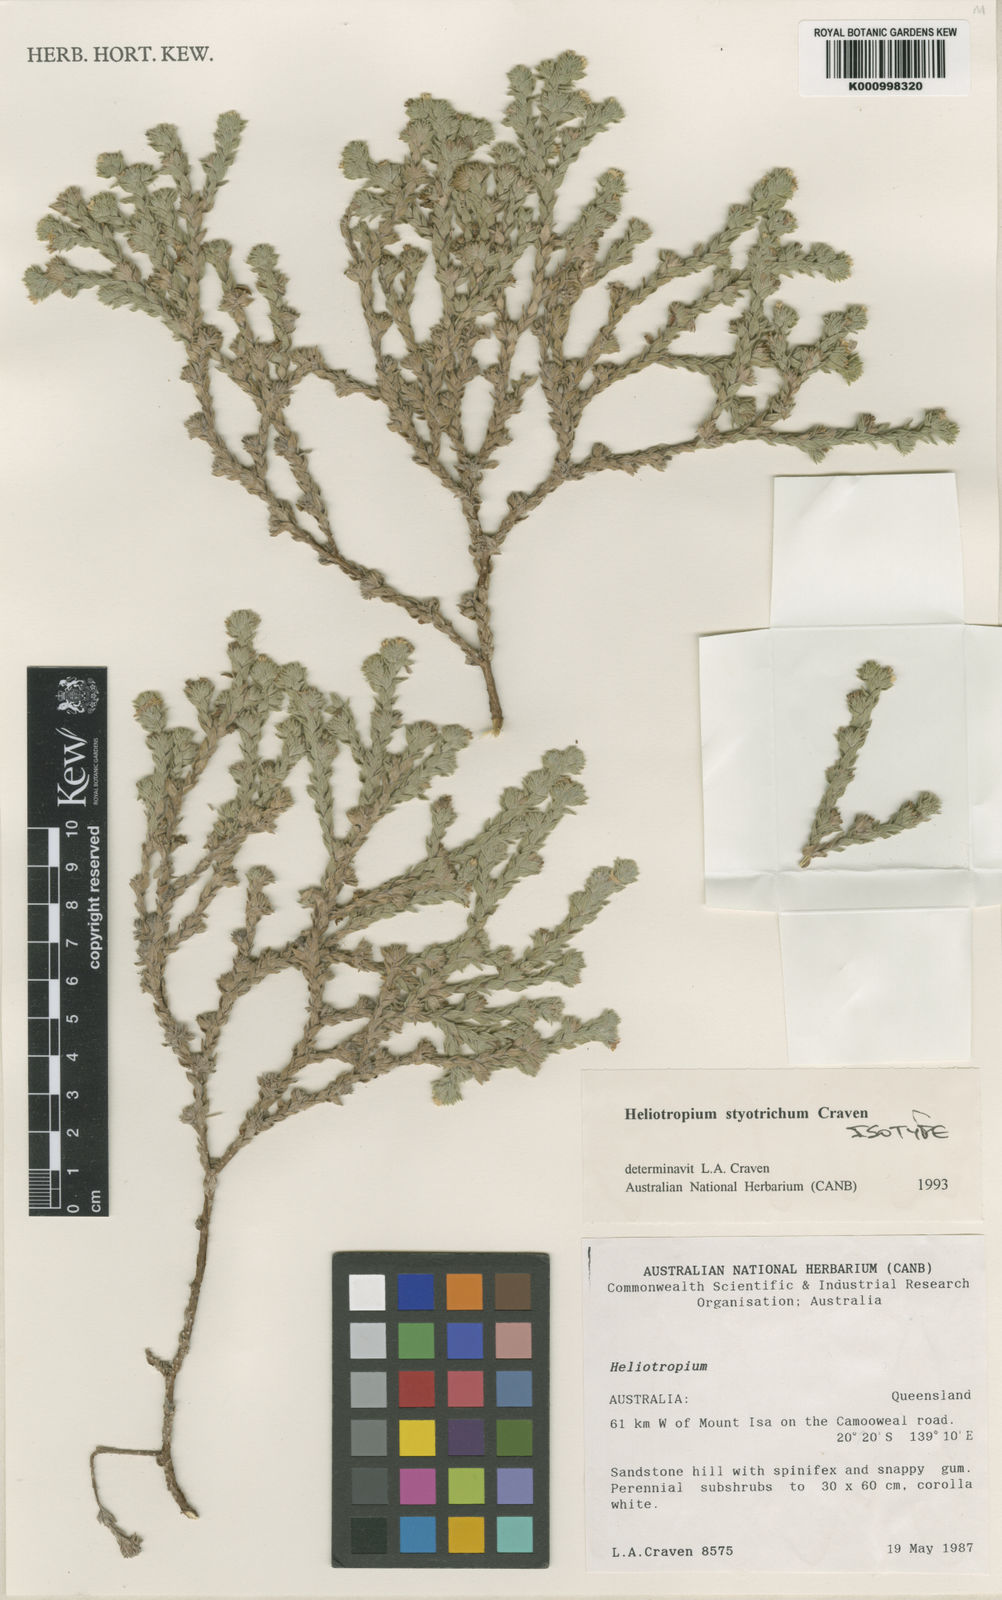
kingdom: Plantae
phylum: Tracheophyta
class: Magnoliopsida
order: Boraginales
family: Heliotropiaceae
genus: Euploca
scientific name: Euploca styotricha
